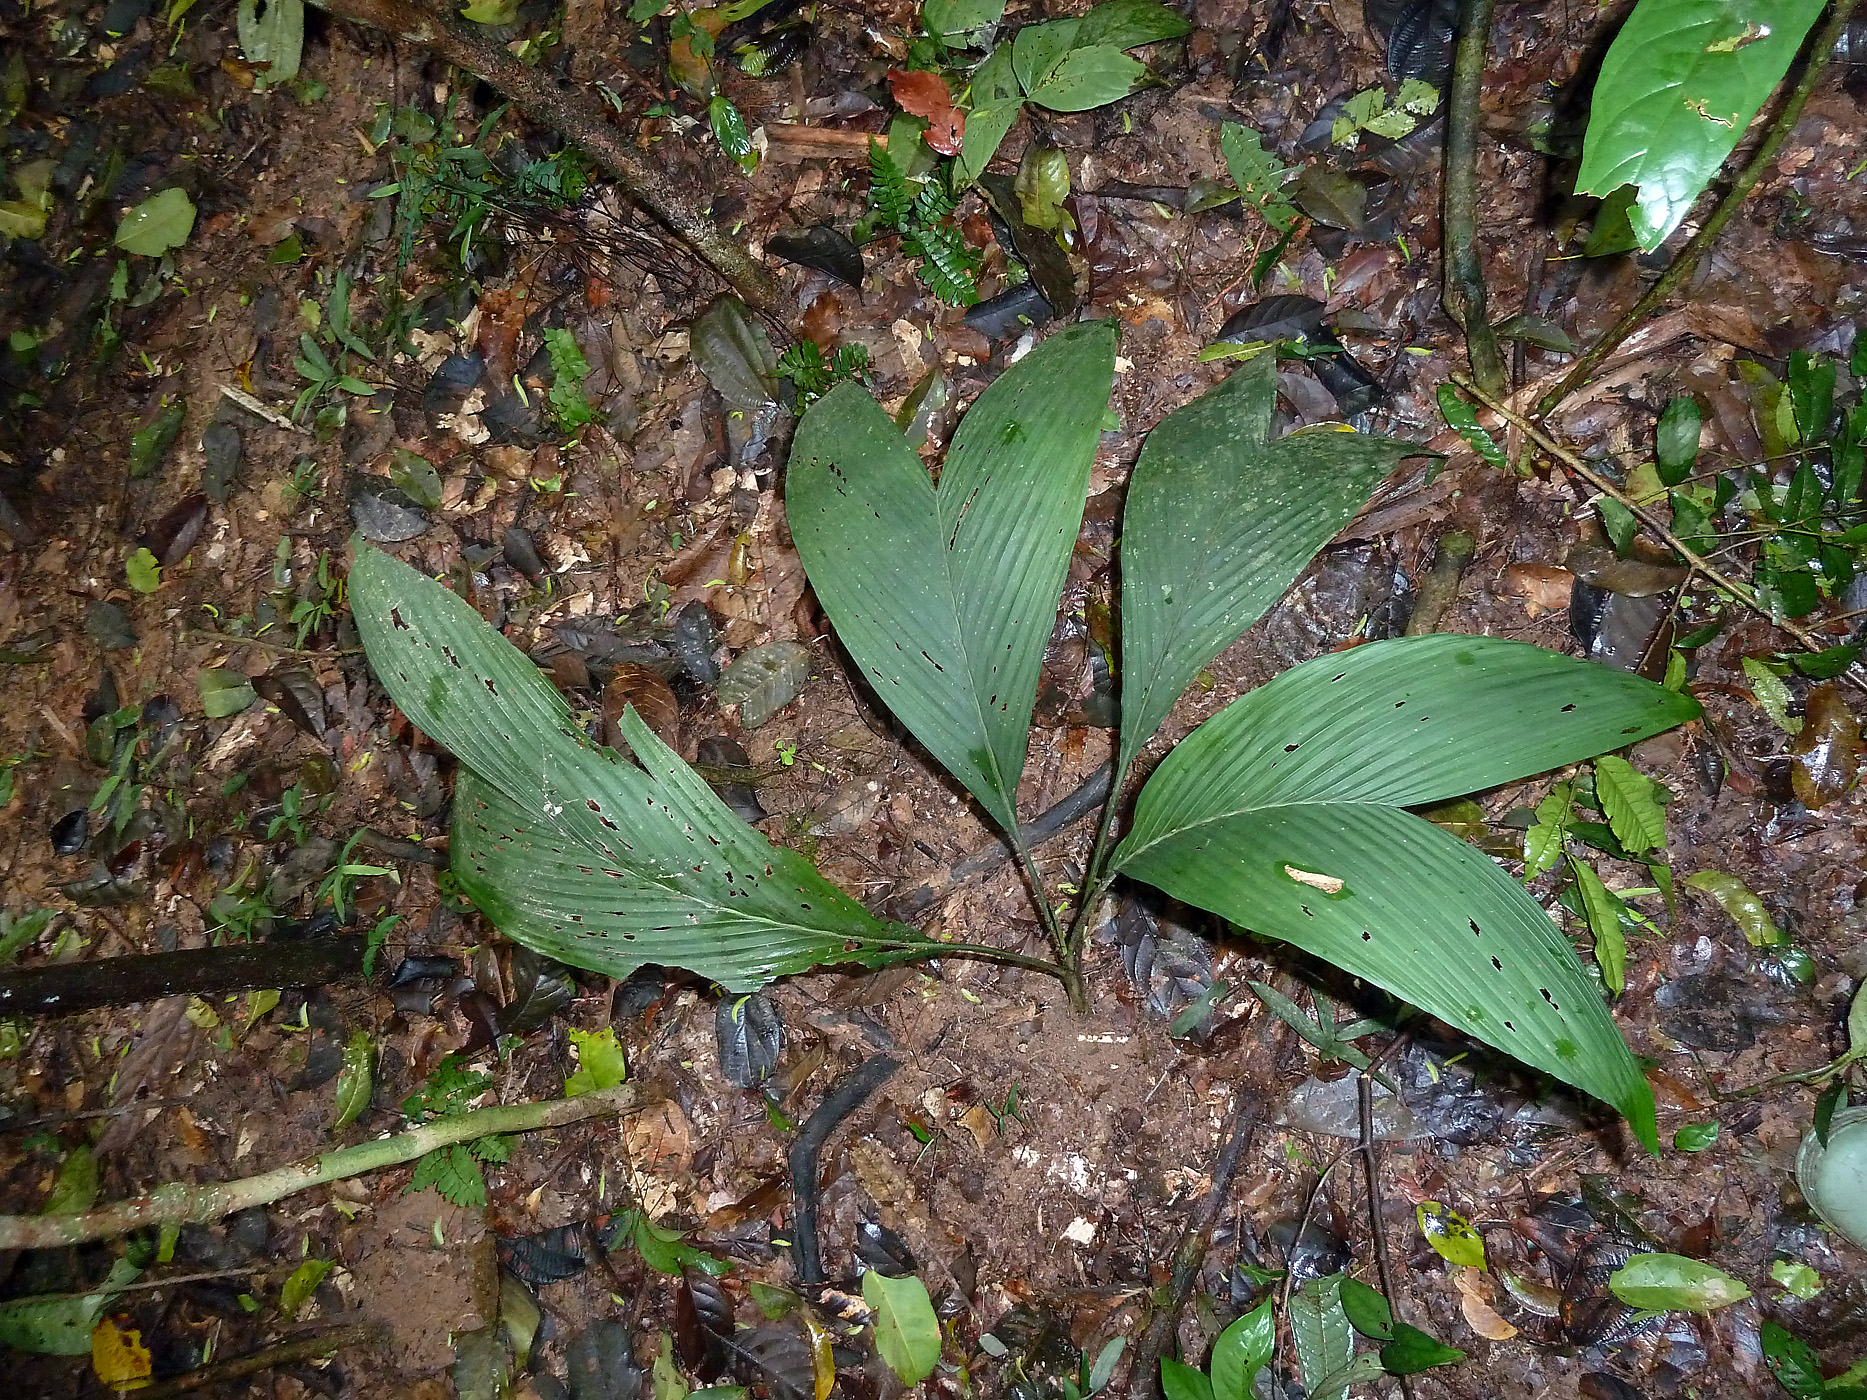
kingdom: Plantae
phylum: Tracheophyta
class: Liliopsida
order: Arecales
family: Arecaceae
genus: Chamaedorea
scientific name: Chamaedorea pauciflora
